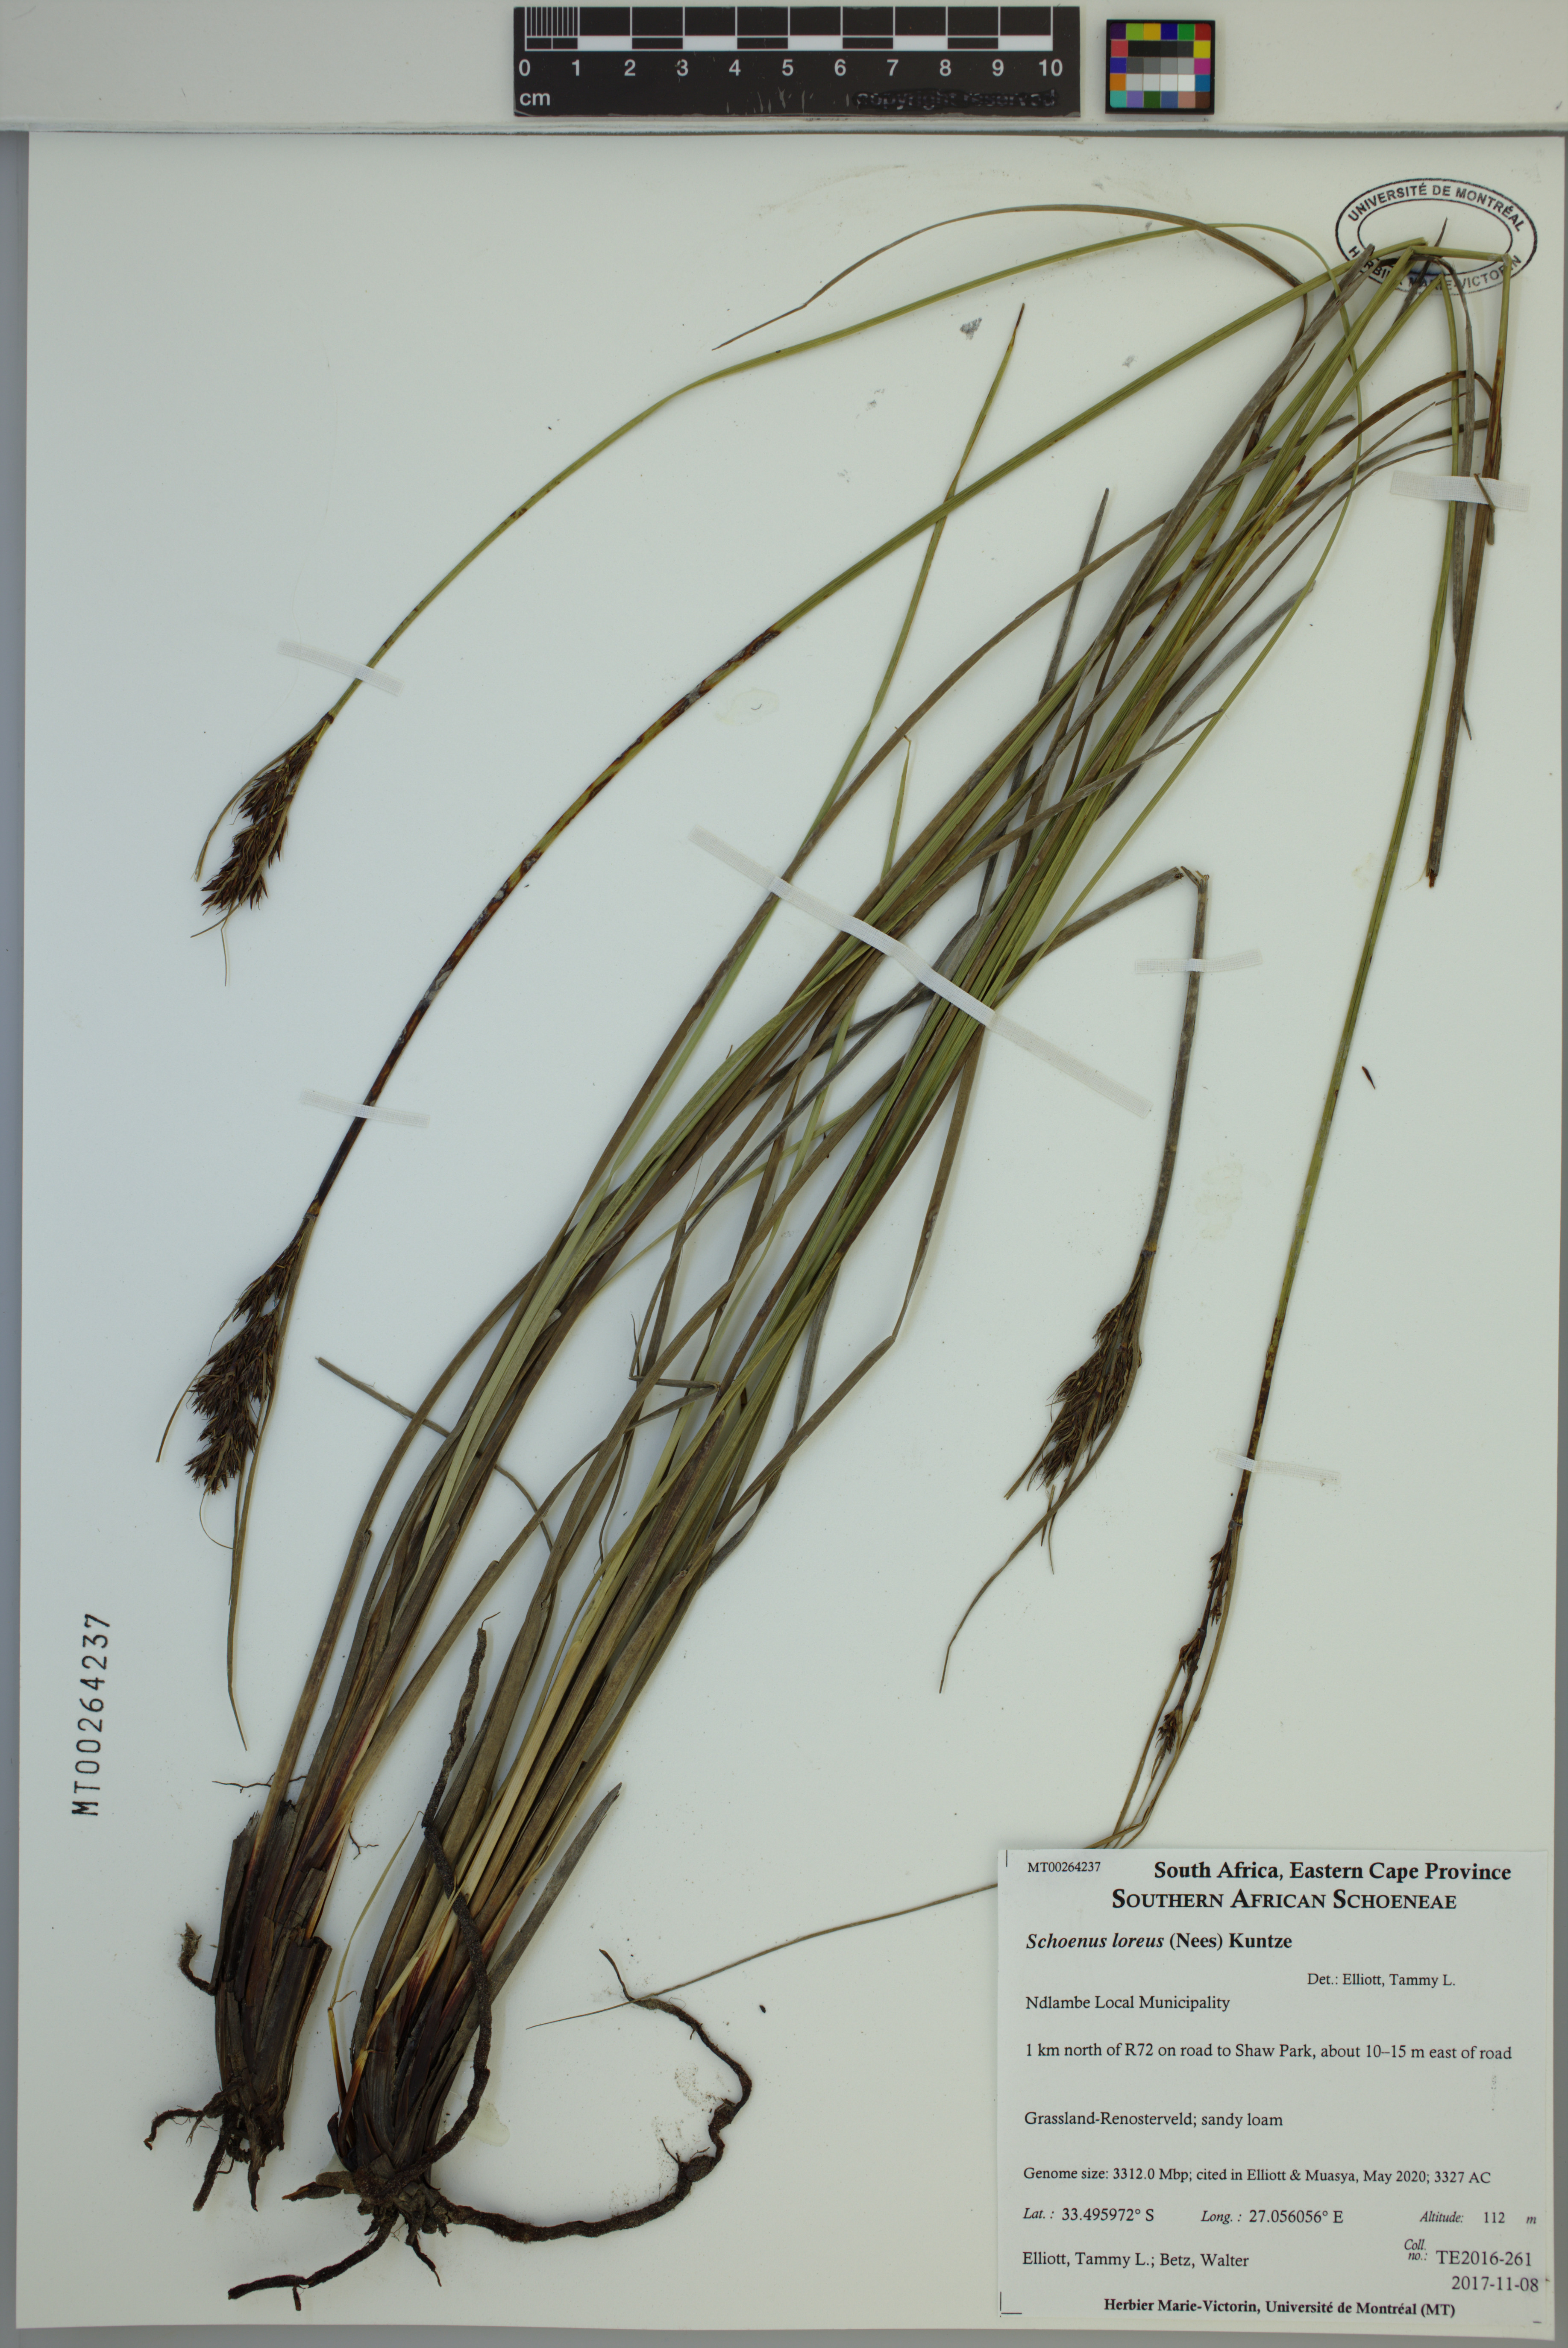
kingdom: Plantae
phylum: Tracheophyta
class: Liliopsida
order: Poales
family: Cyperaceae
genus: Schoenus
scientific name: Schoenus loreus
